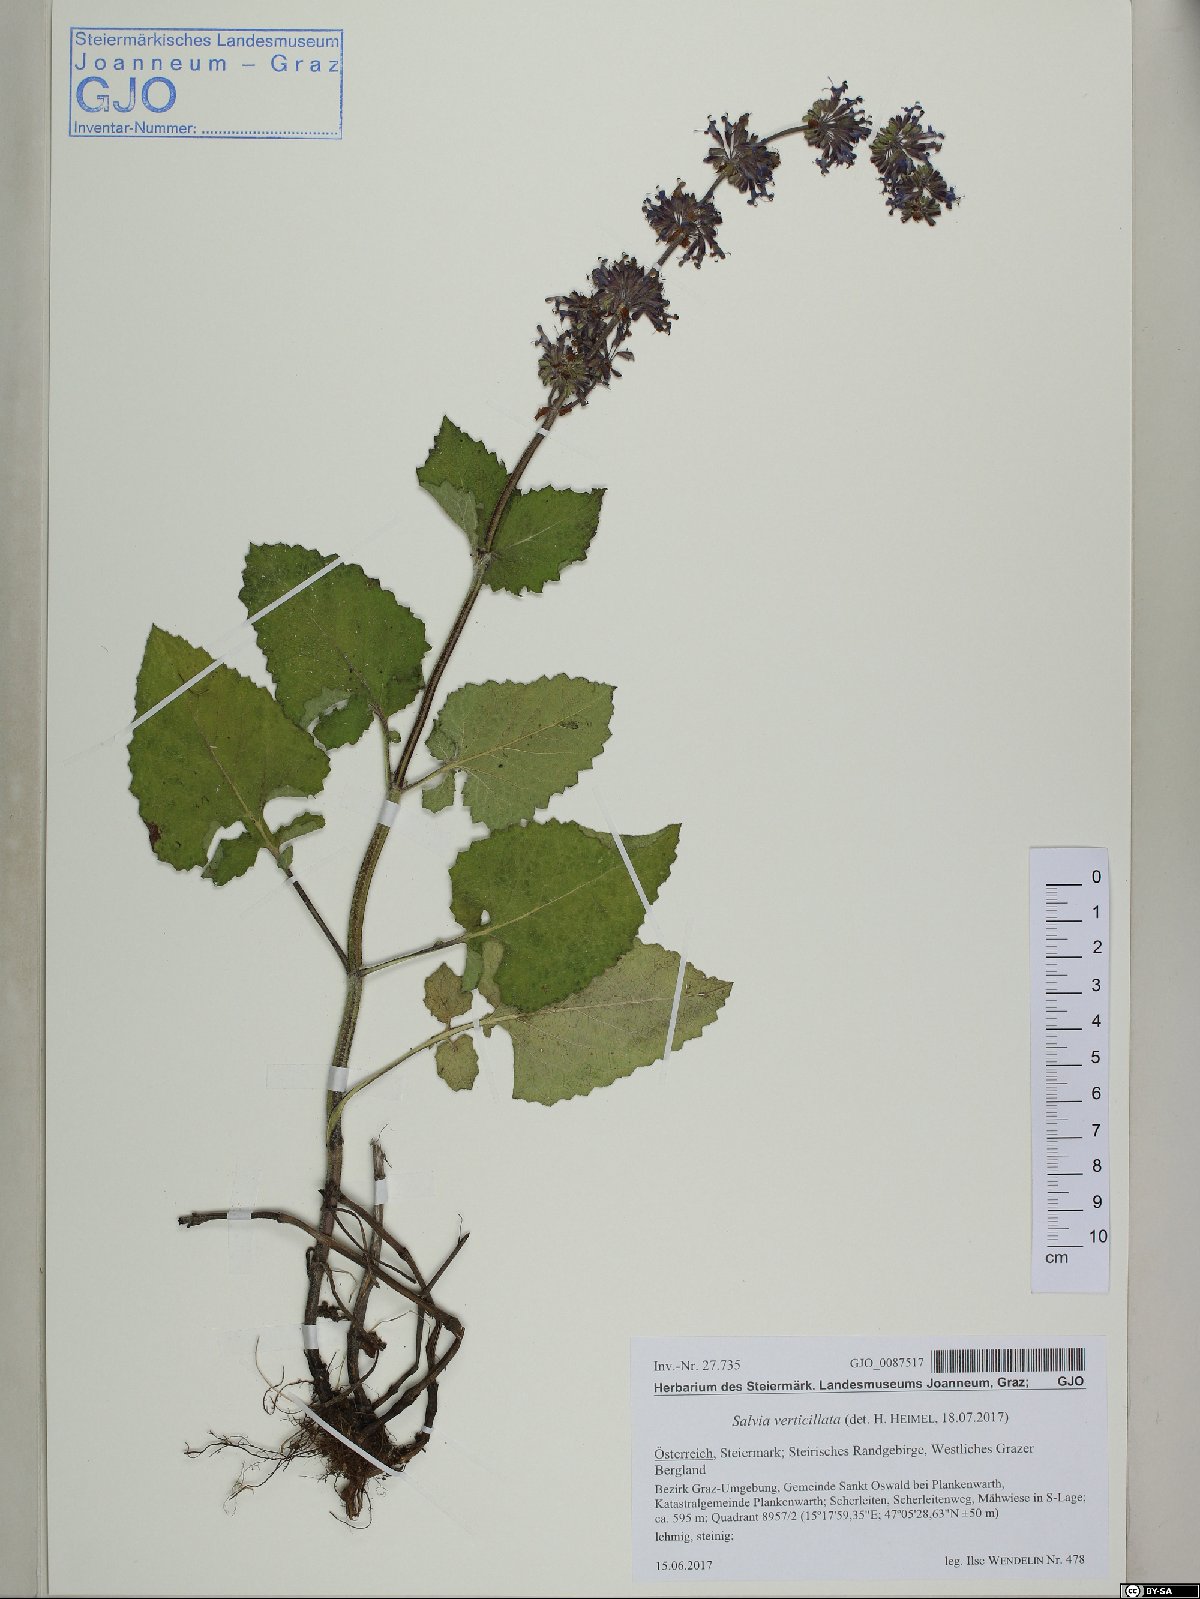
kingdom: Plantae
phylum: Tracheophyta
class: Magnoliopsida
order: Lamiales
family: Lamiaceae
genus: Salvia
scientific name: Salvia verticillata
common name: Whorled clary
